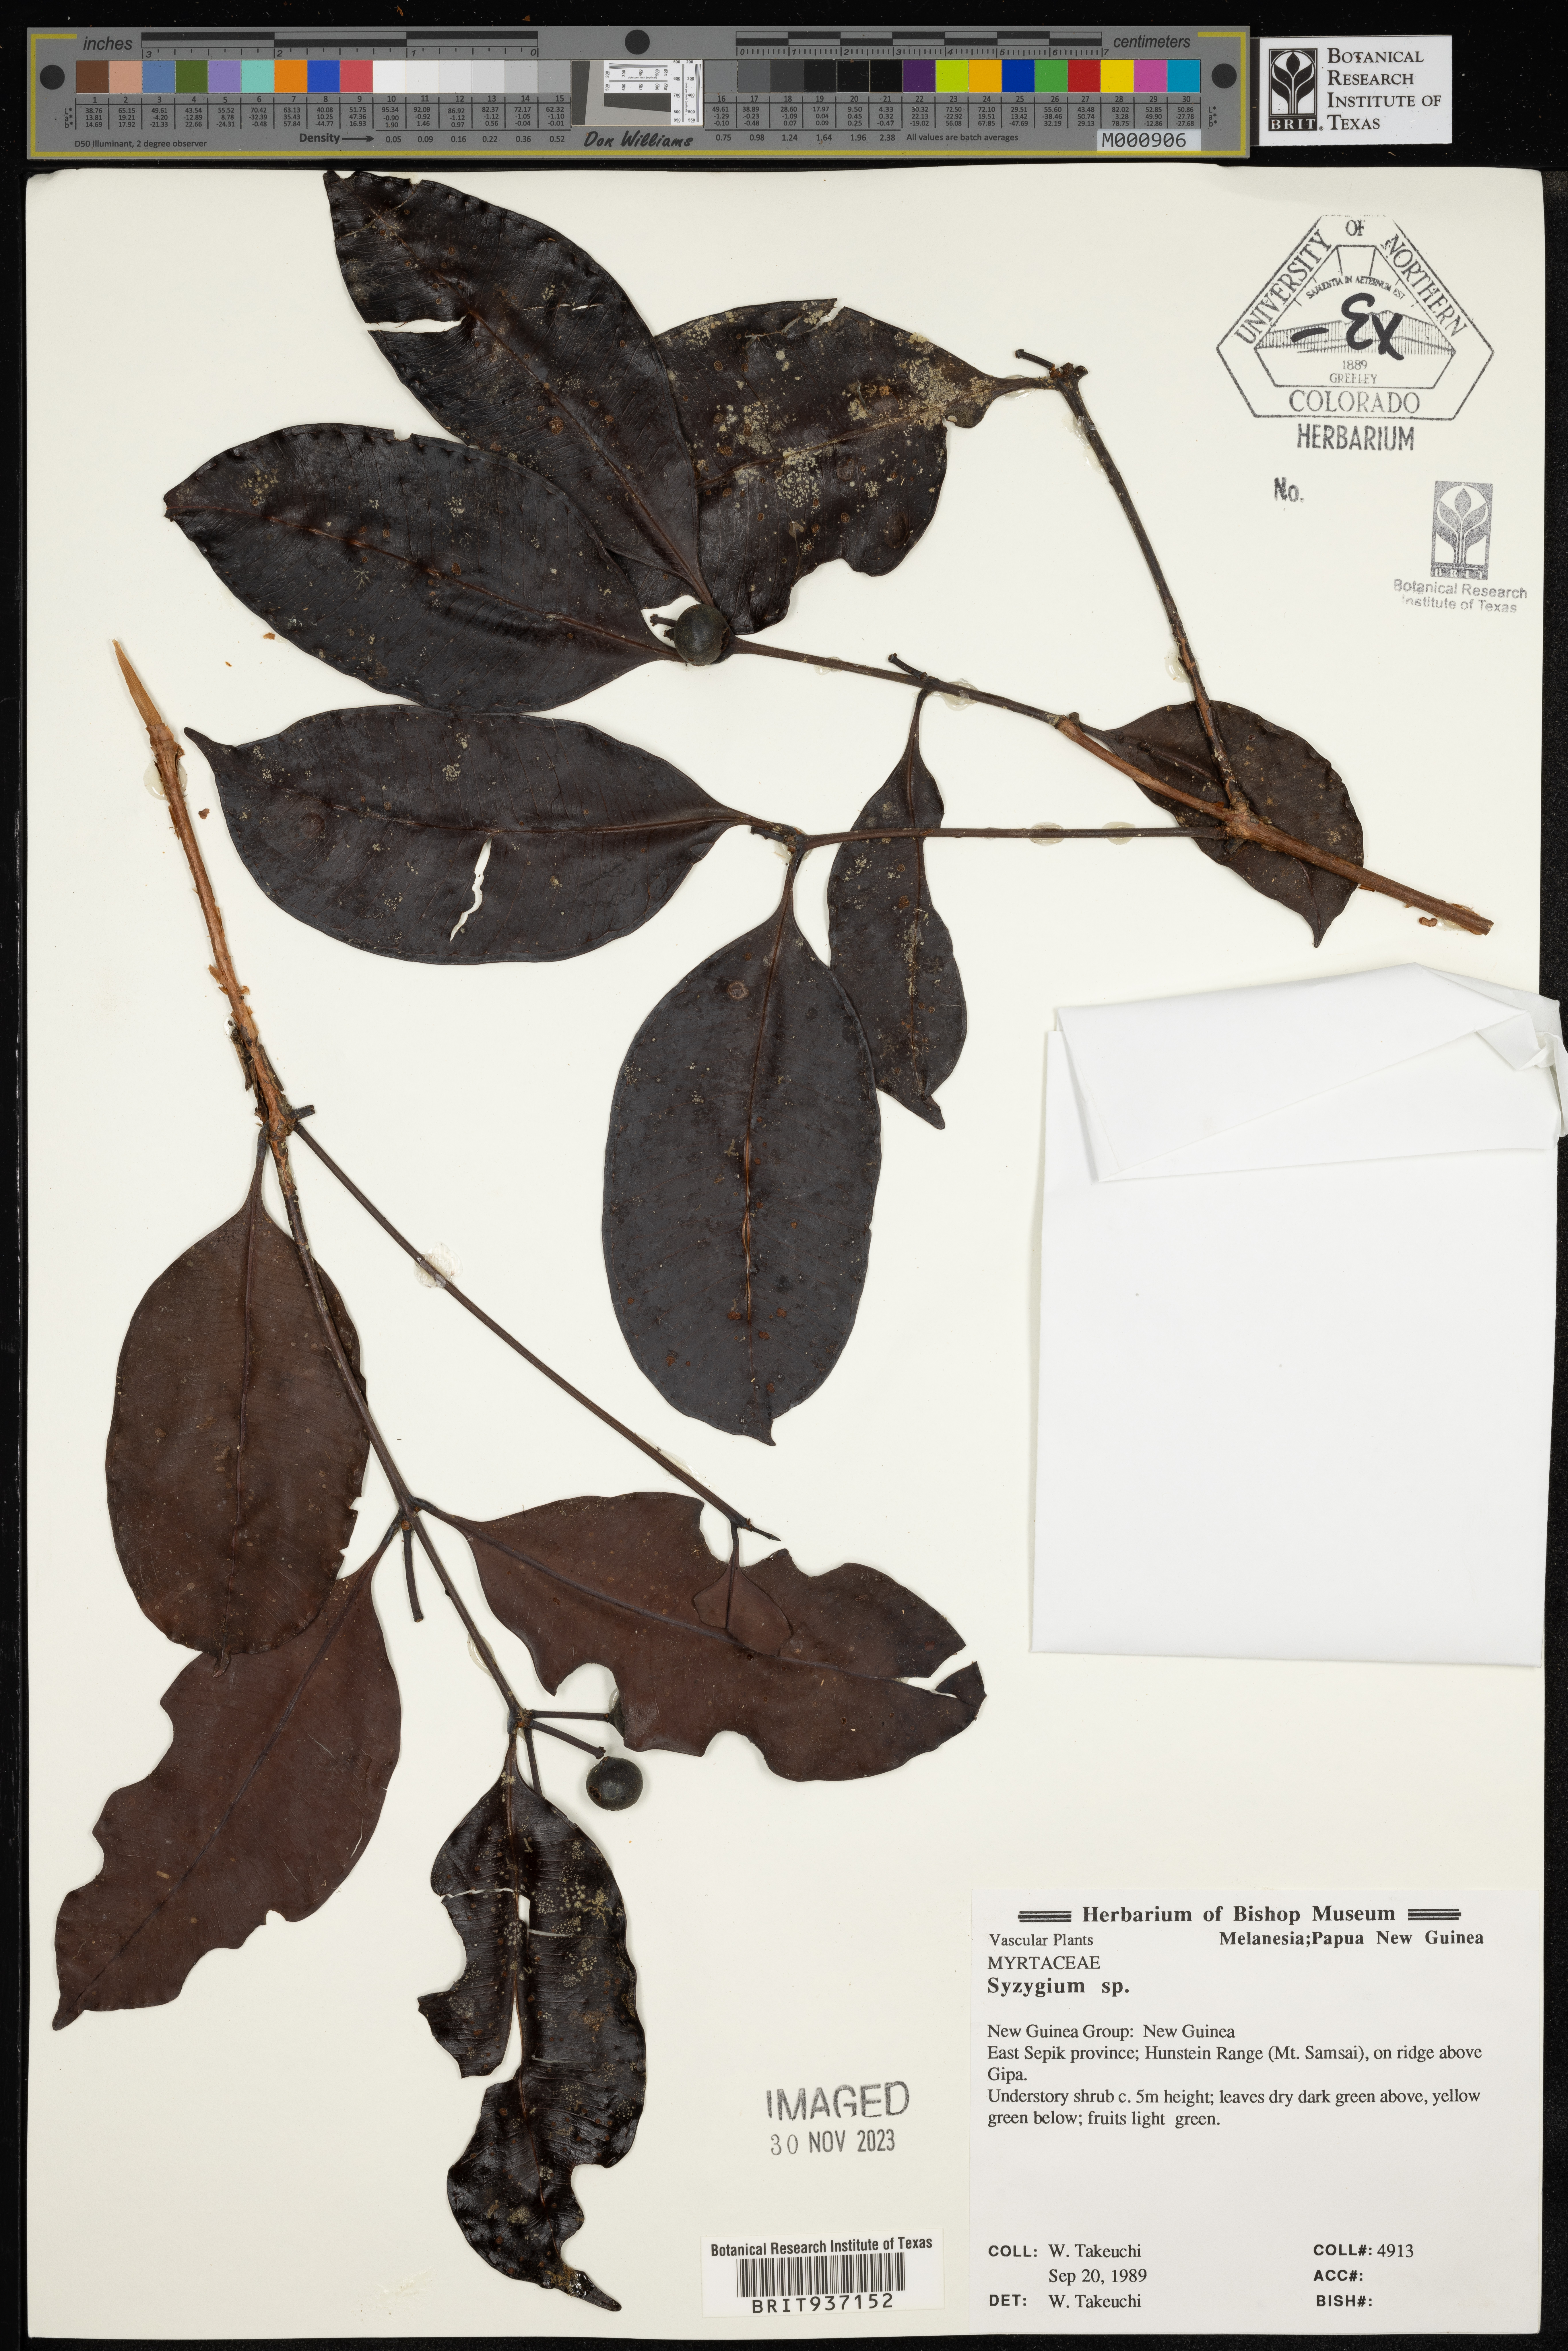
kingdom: Plantae
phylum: Tracheophyta
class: Magnoliopsida
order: Myrtales
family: Myrtaceae
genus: Syzygium
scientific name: Syzygium
